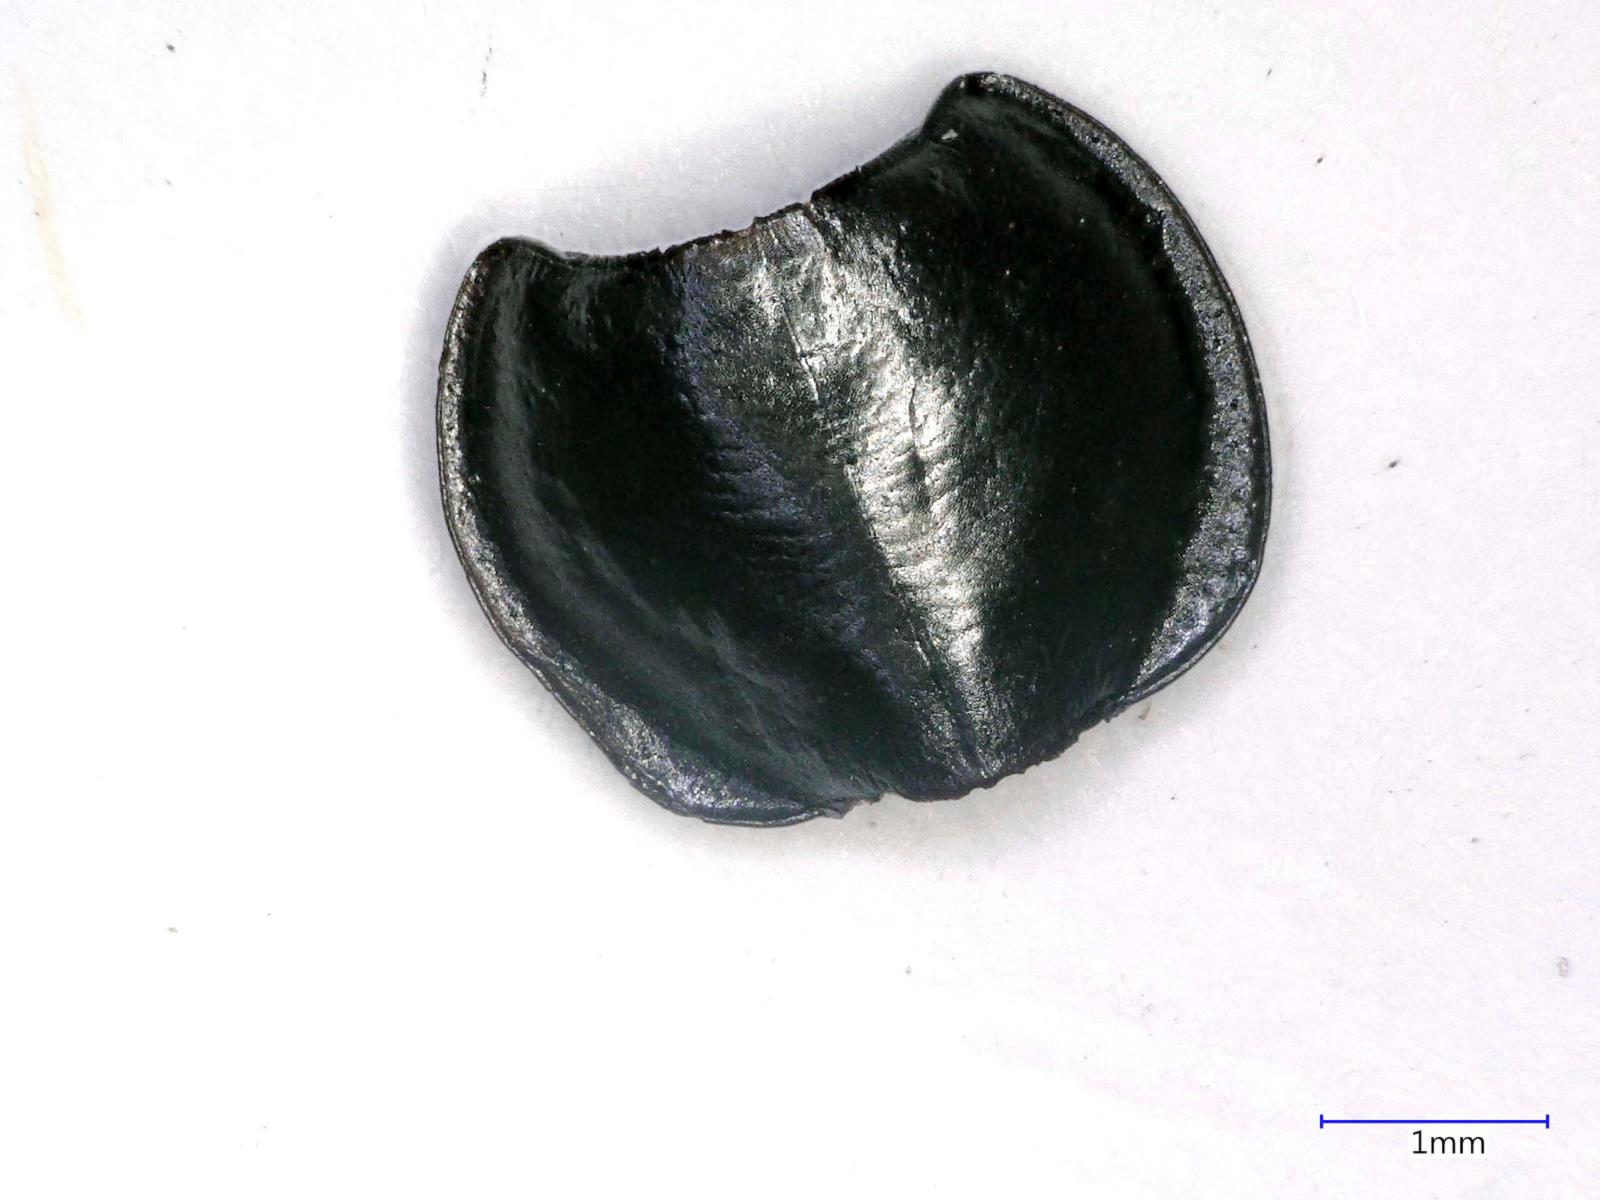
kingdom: Animalia
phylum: Arthropoda
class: Insecta
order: Coleoptera
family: Carabidae
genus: Tanystoma
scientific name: Tanystoma maculicolle
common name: Tule beetle
